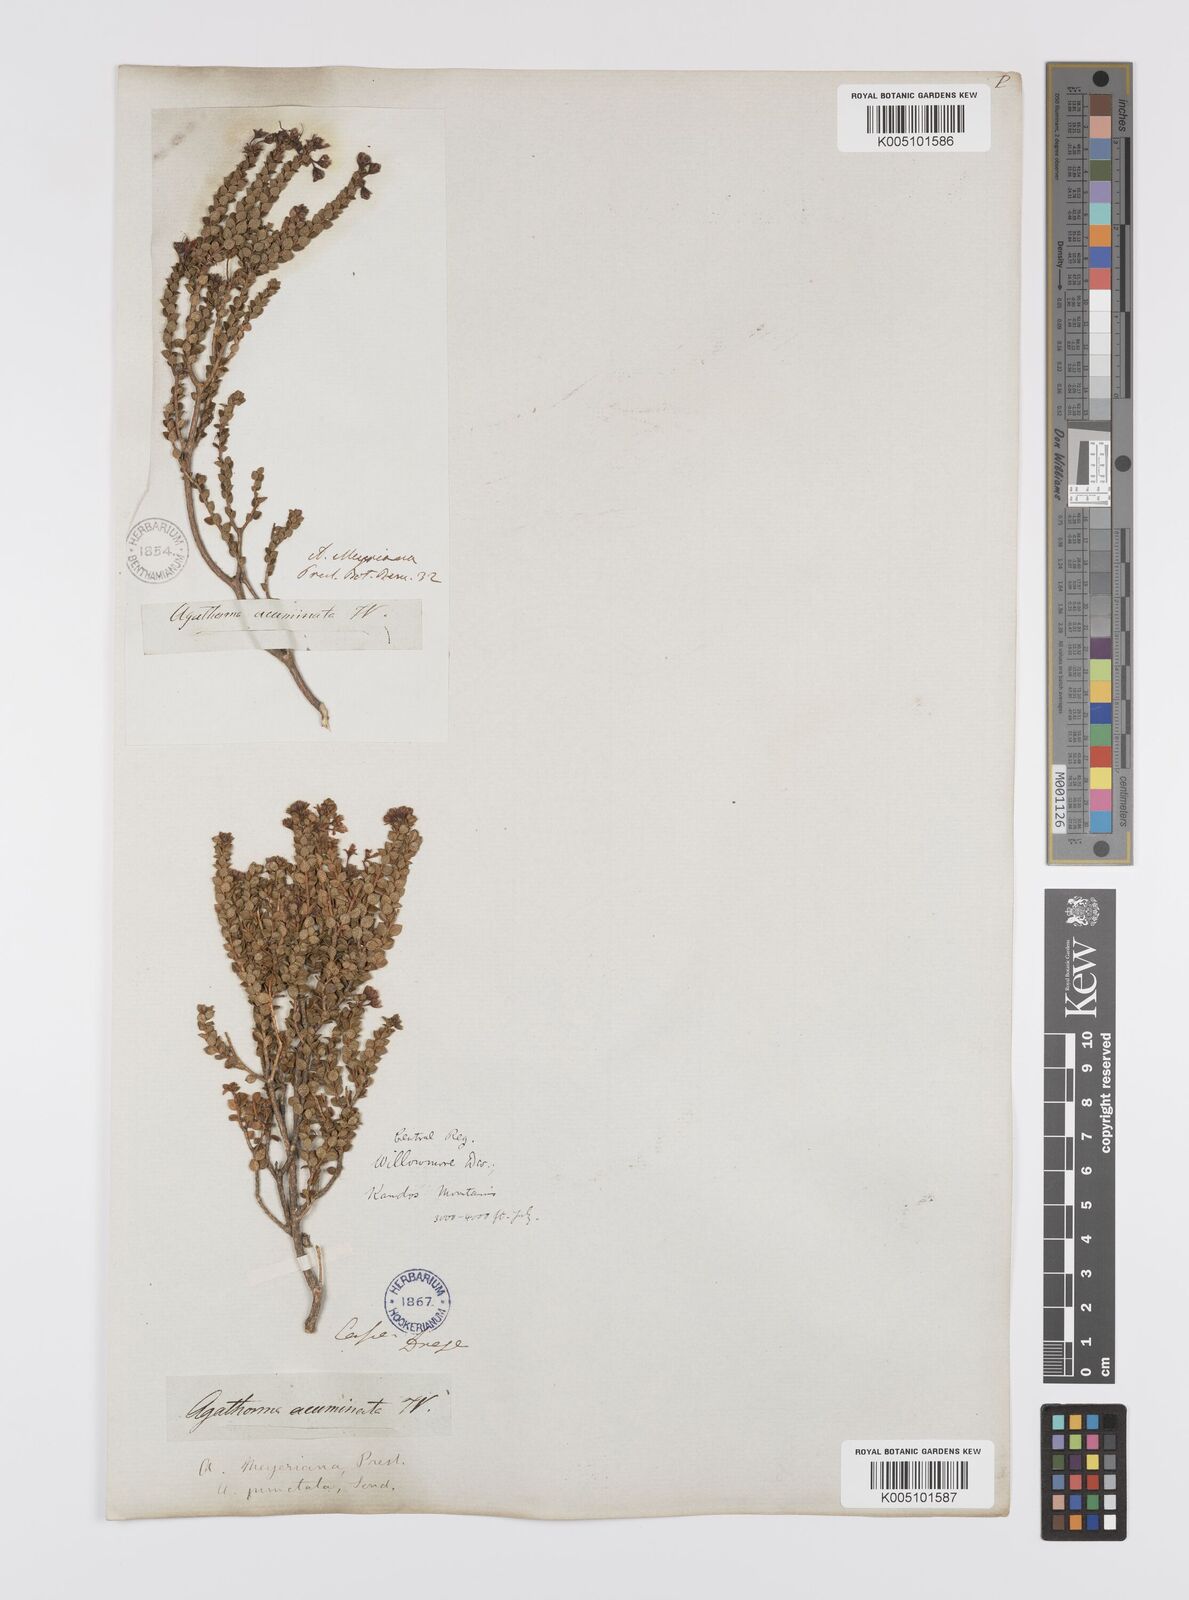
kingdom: Plantae
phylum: Tracheophyta
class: Magnoliopsida
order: Sapindales
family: Rutaceae
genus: Agathosma
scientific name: Agathosma ovalifolia
